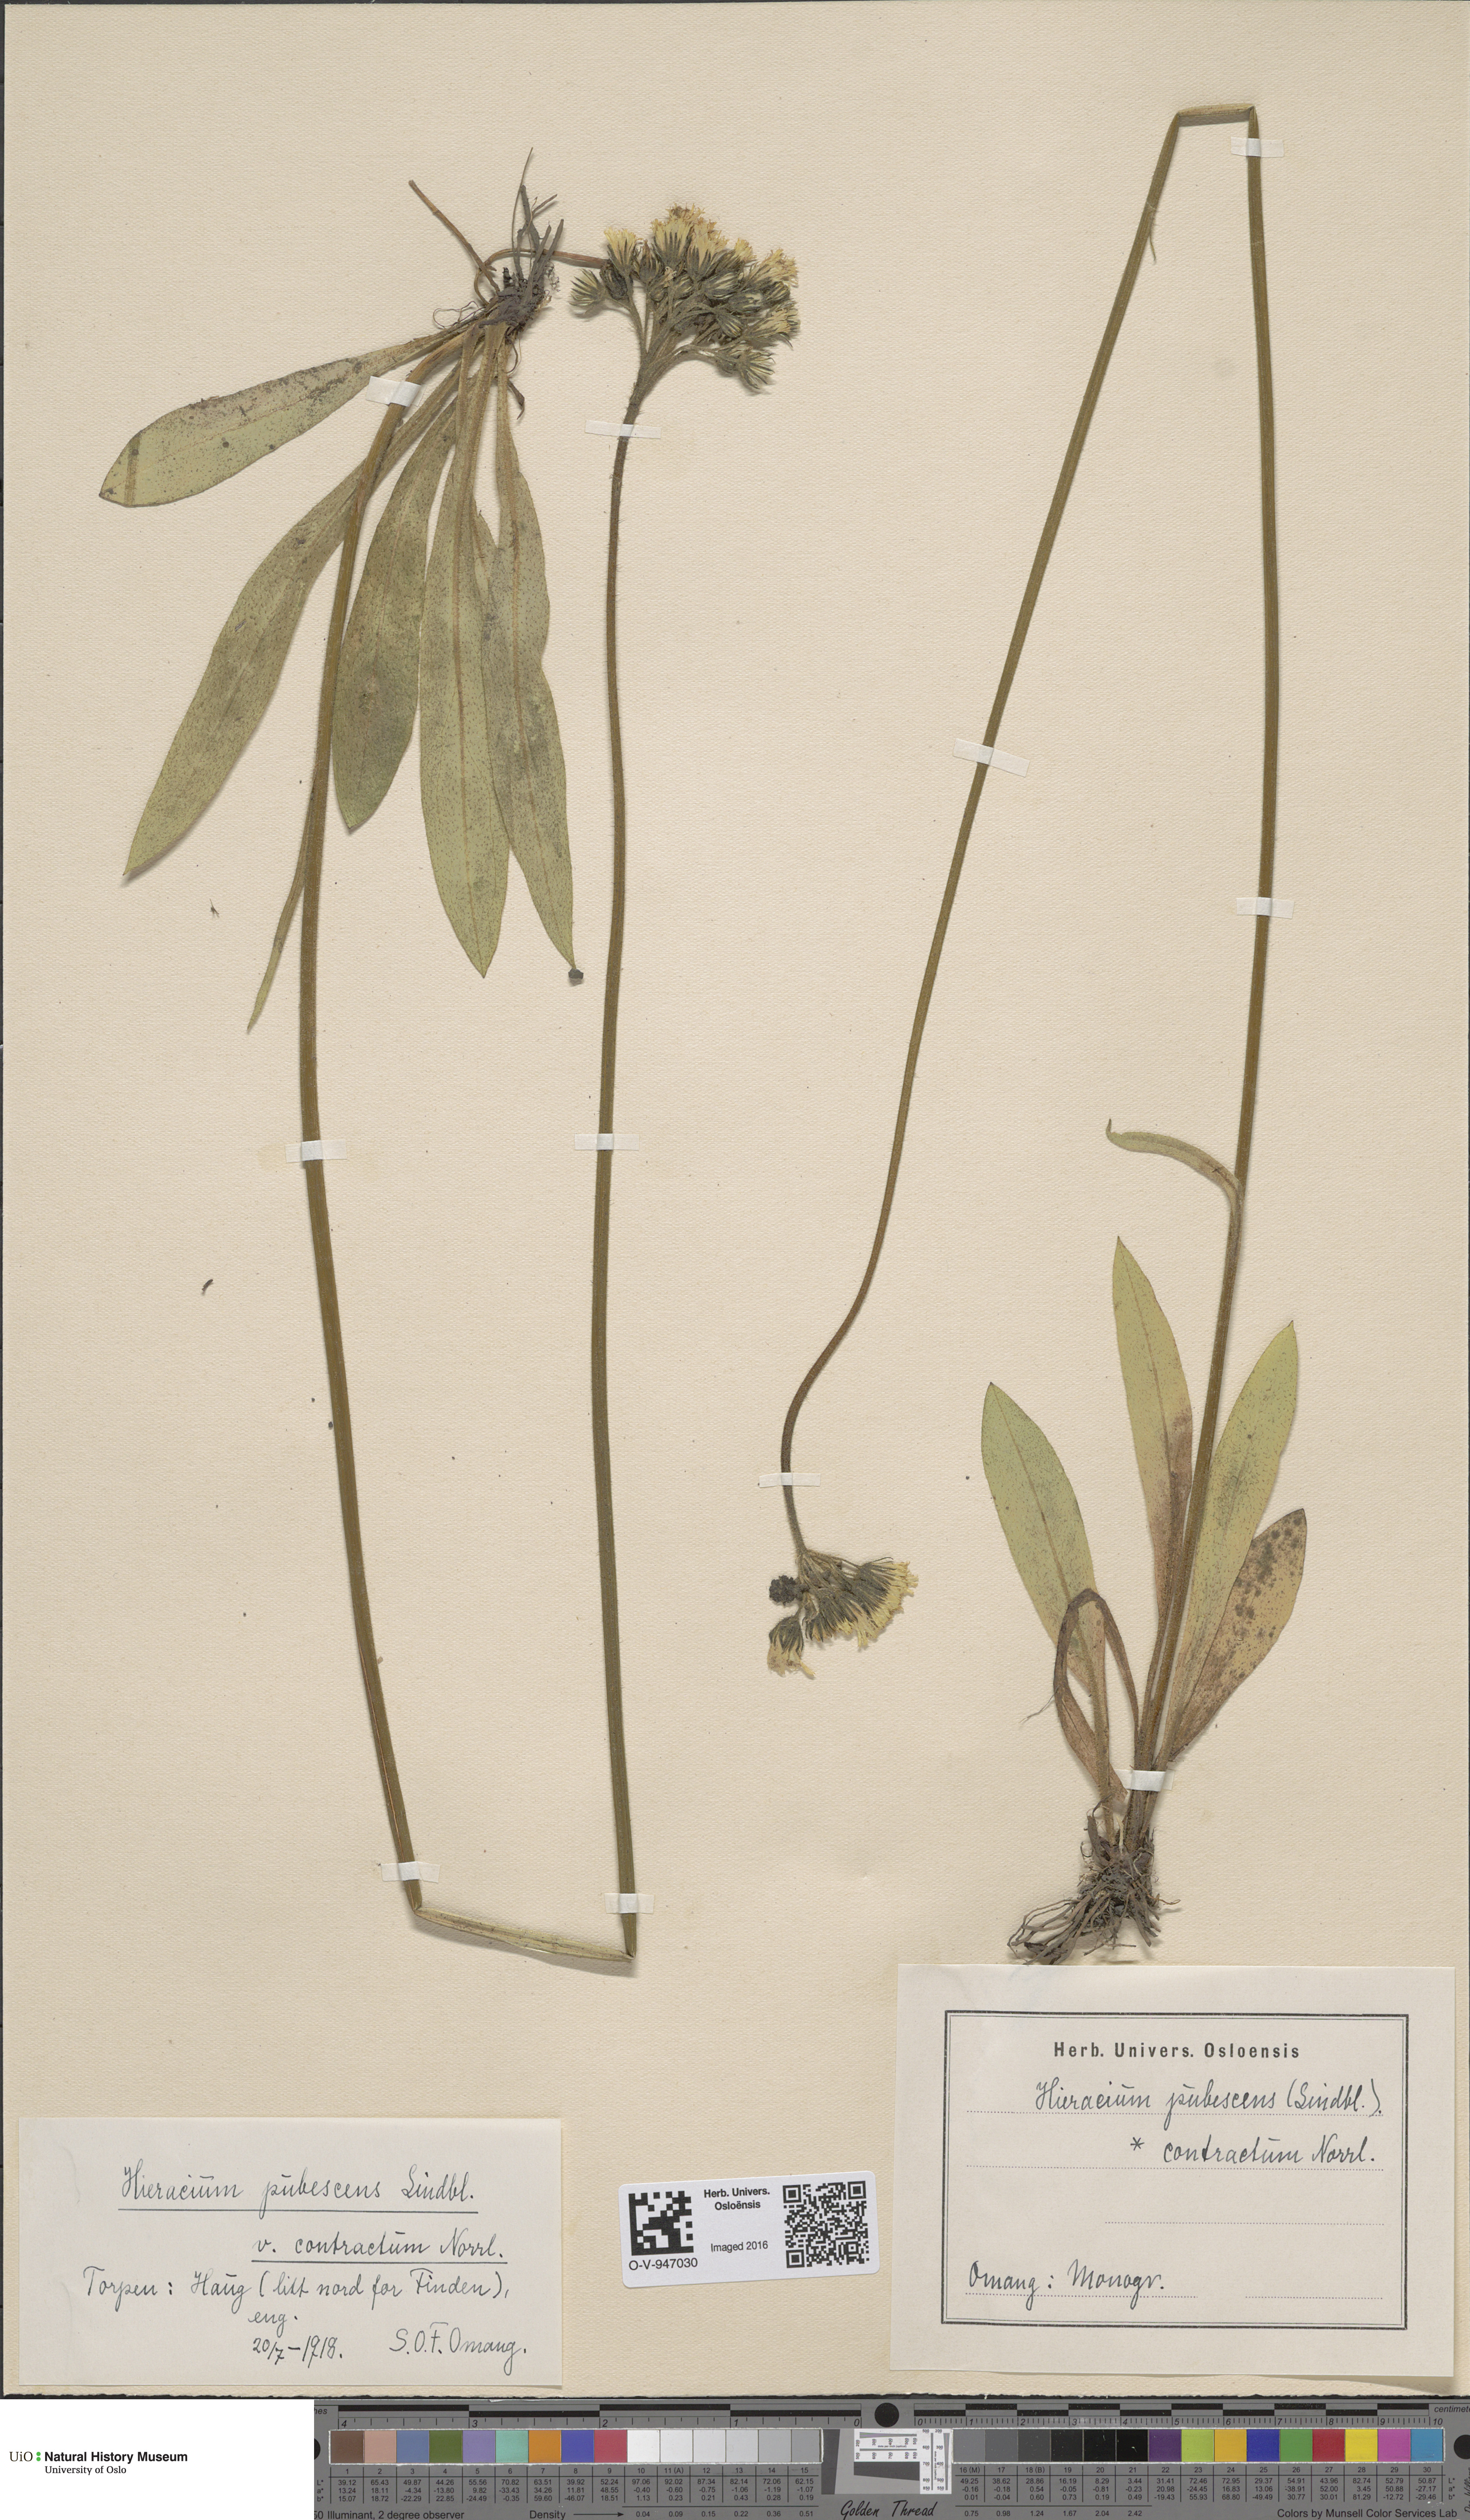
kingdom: Plantae
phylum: Tracheophyta
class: Magnoliopsida
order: Asterales
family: Asteraceae
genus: Pilosella
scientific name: Pilosella cymosa
